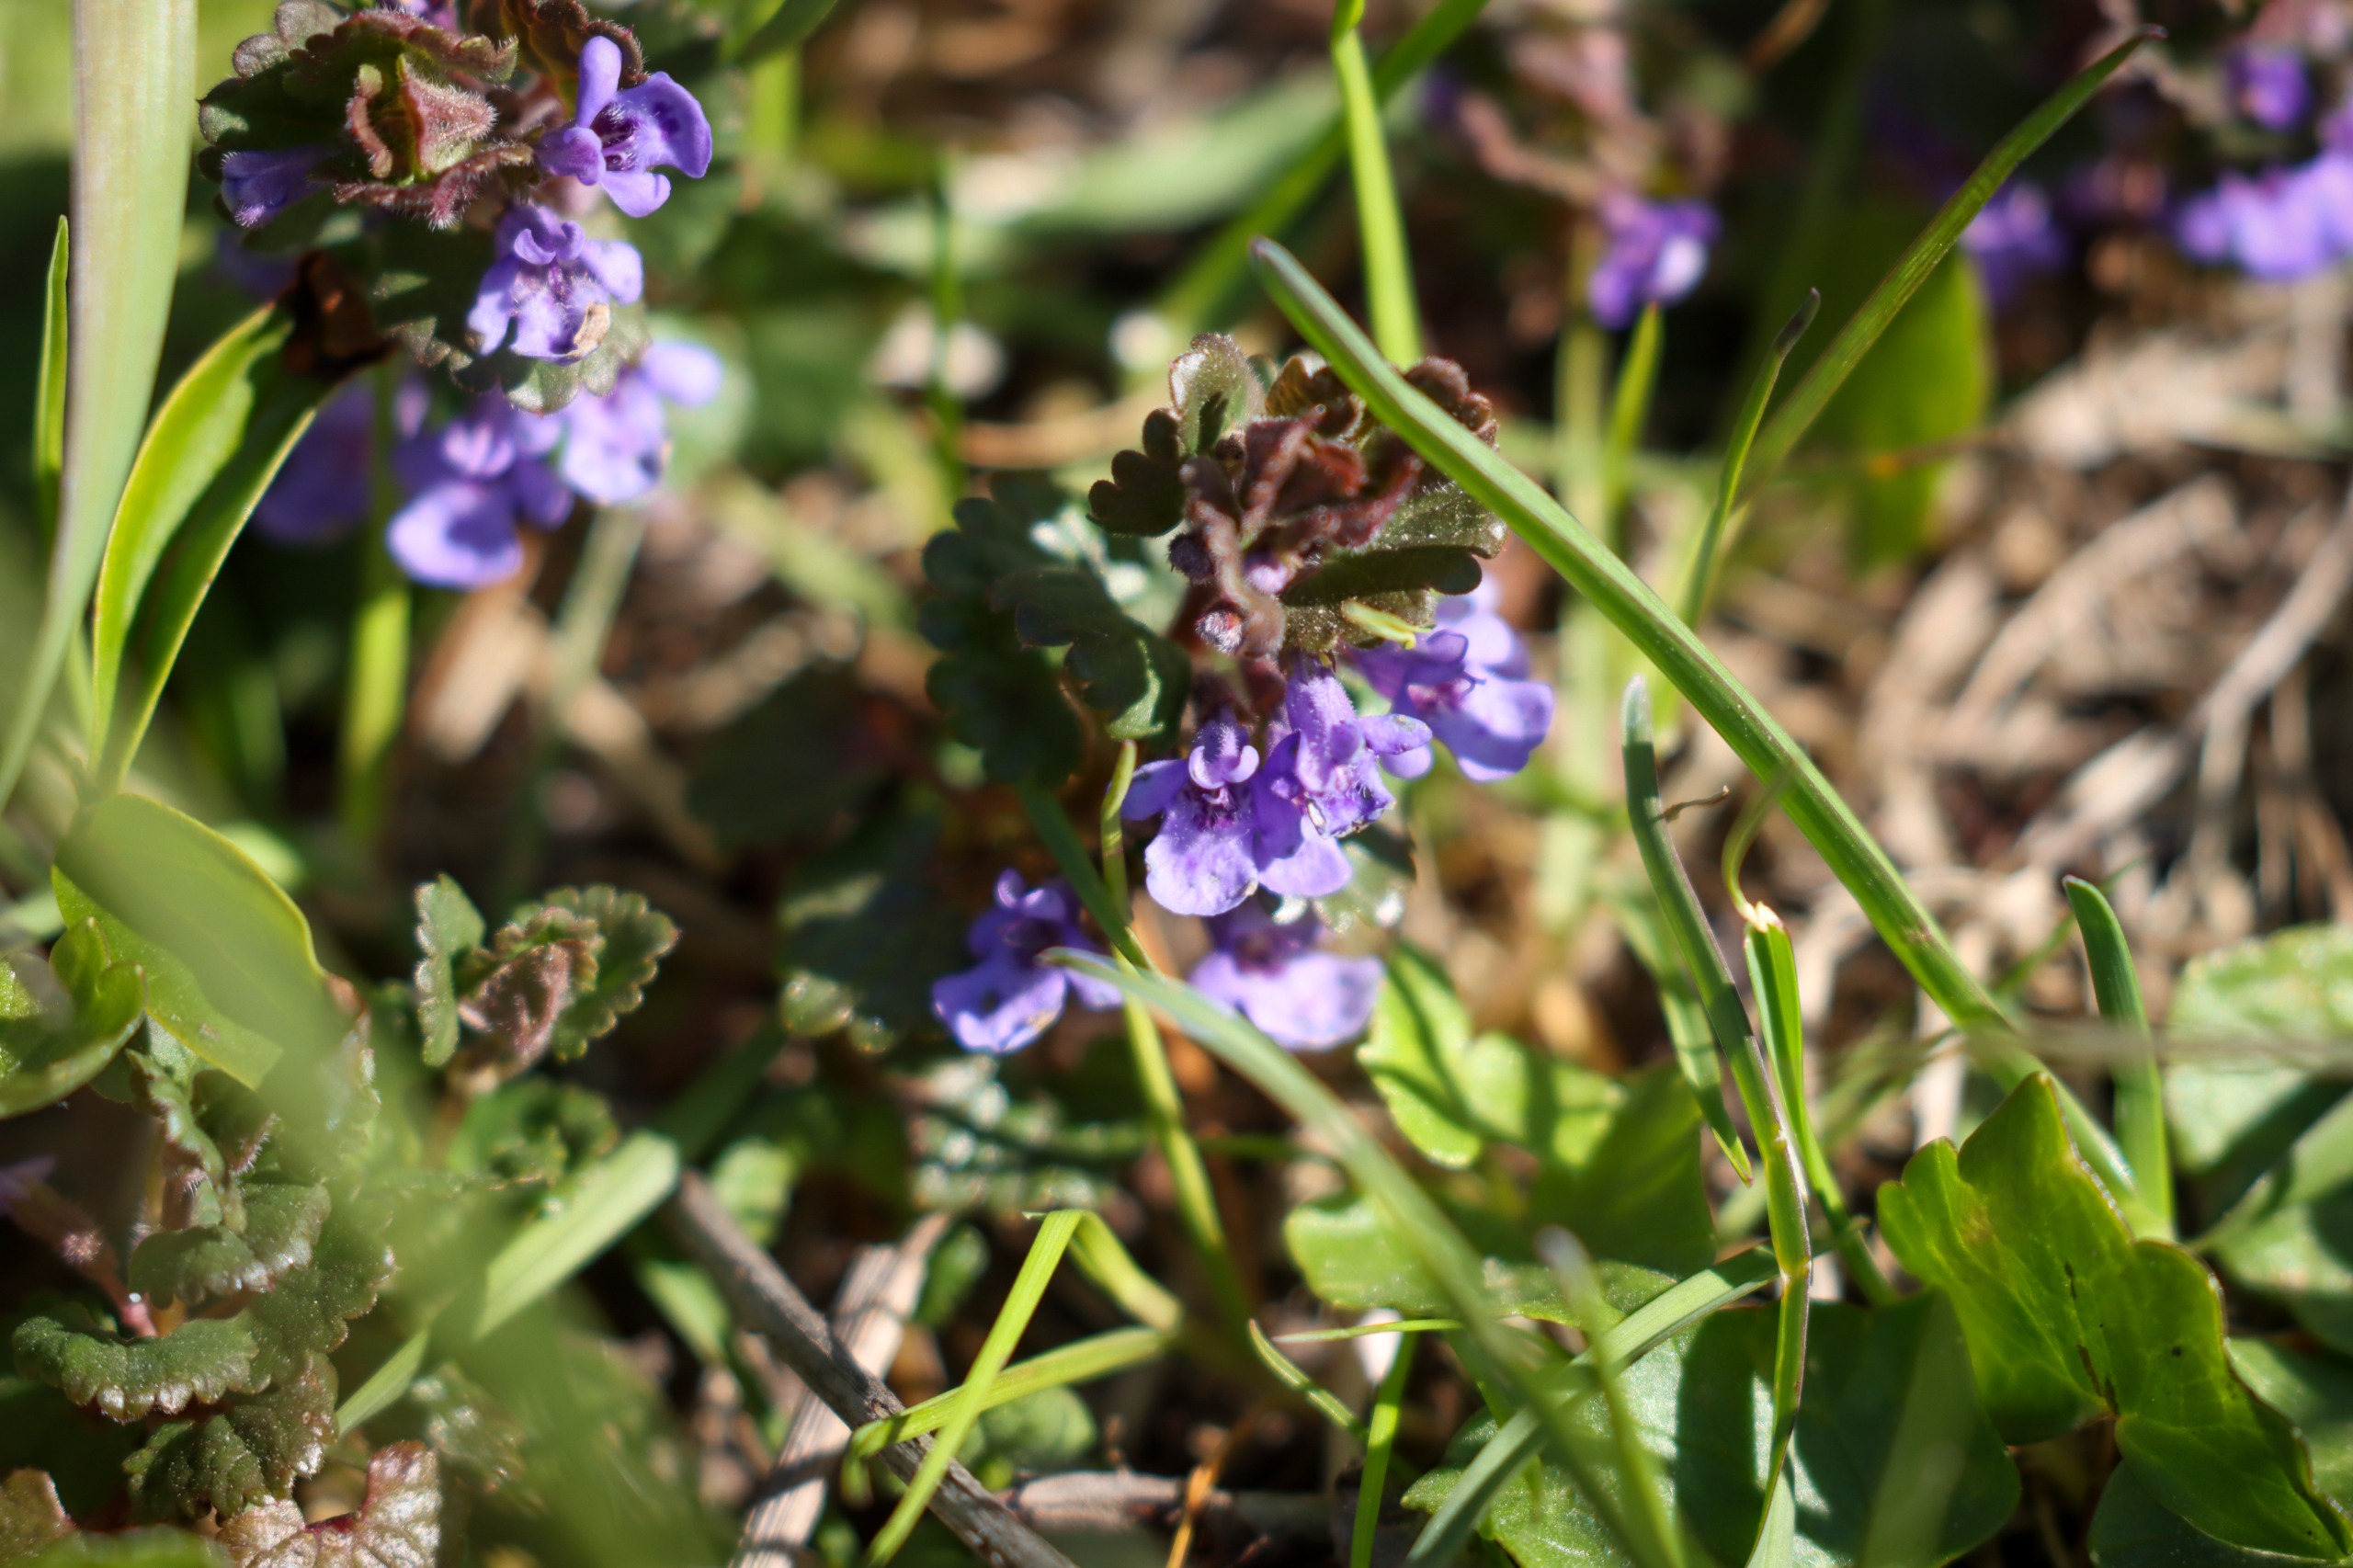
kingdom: Plantae
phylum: Tracheophyta
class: Magnoliopsida
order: Lamiales
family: Lamiaceae
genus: Glechoma
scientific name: Glechoma hederacea
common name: Korsknap
